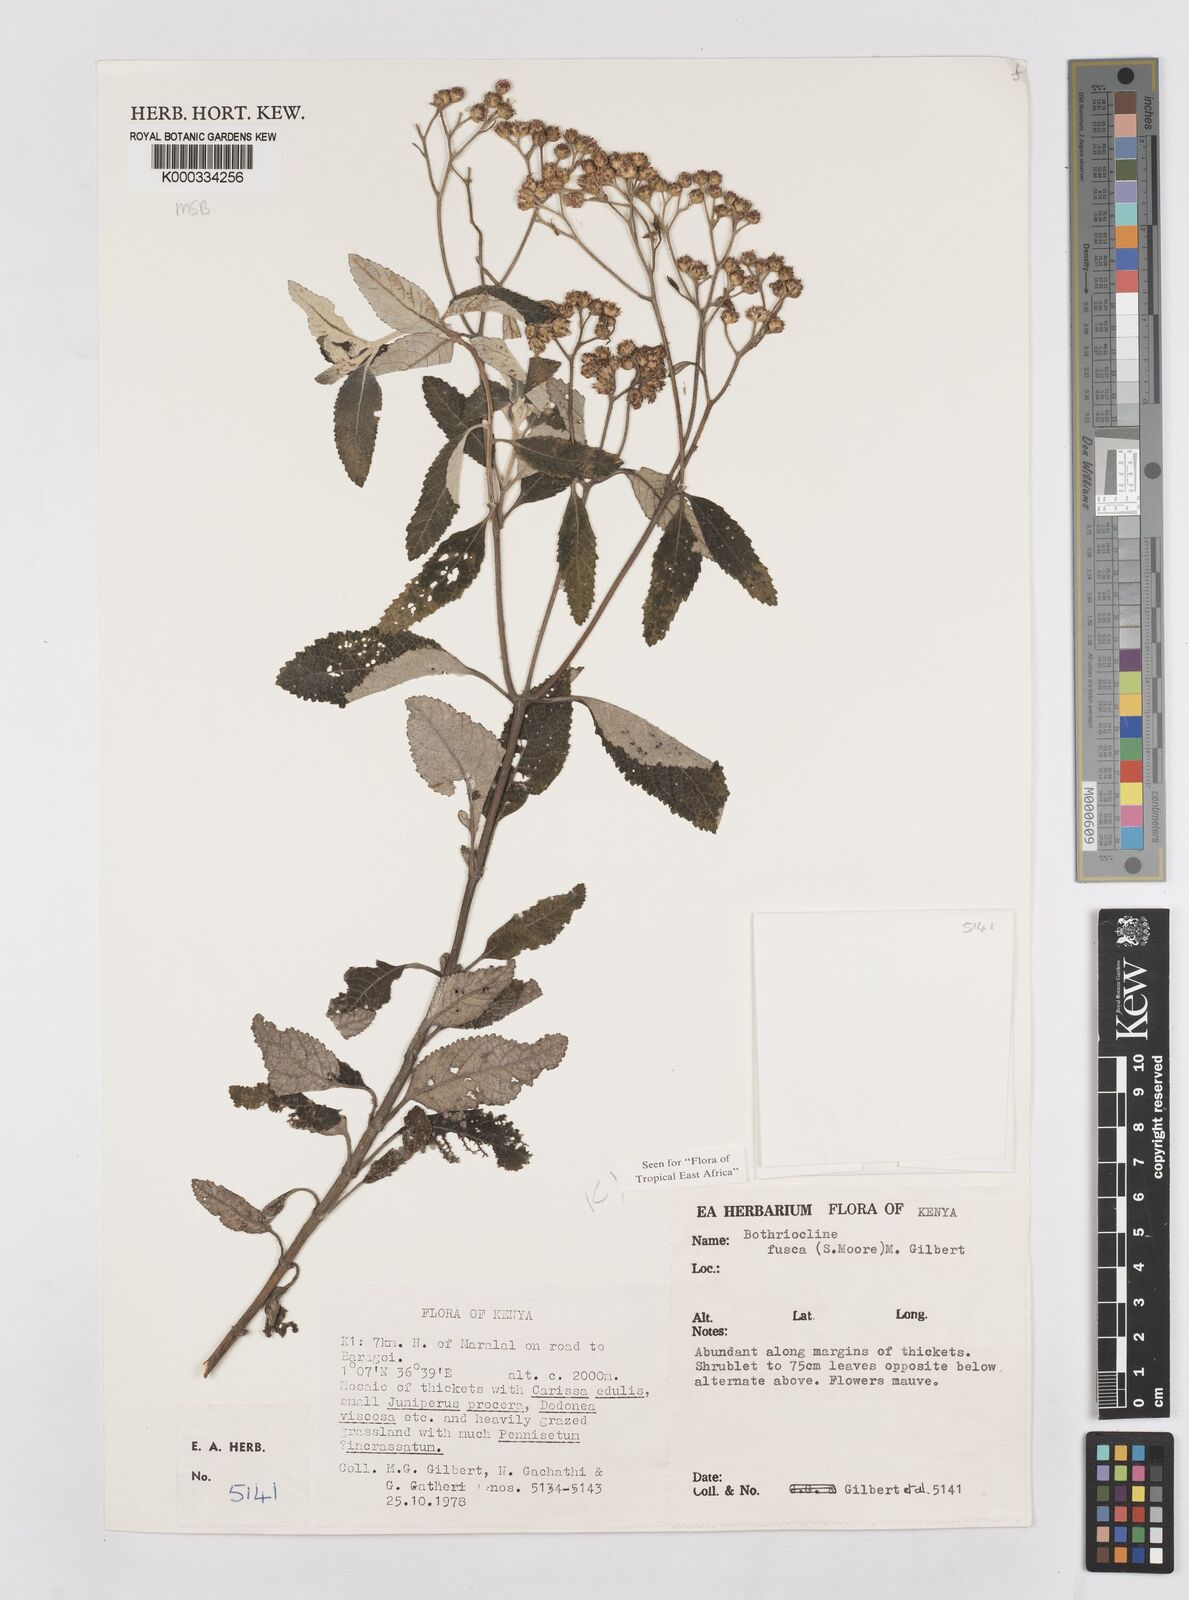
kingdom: Plantae
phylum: Tracheophyta
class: Magnoliopsida
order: Asterales
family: Asteraceae
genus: Bothriocline
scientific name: Bothriocline fusca
